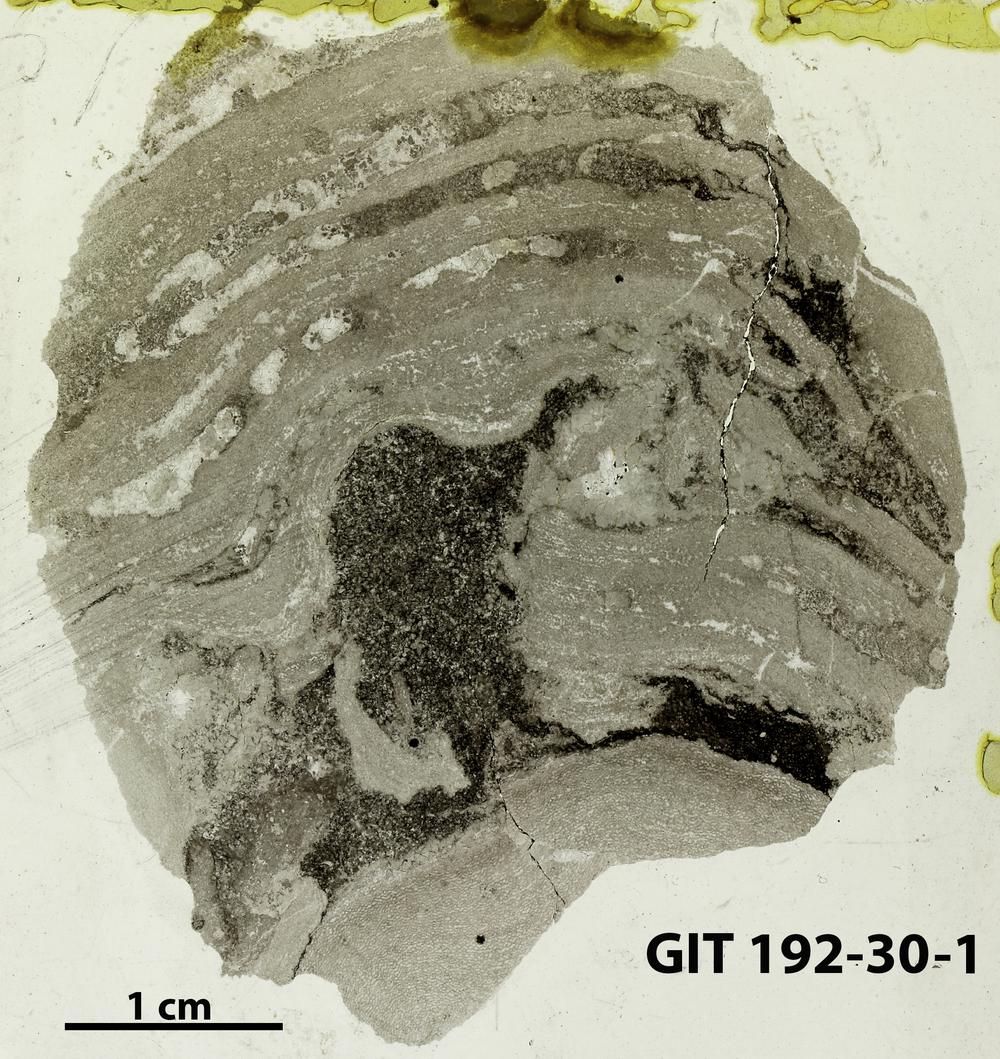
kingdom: Animalia
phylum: Porifera
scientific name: Porifera
